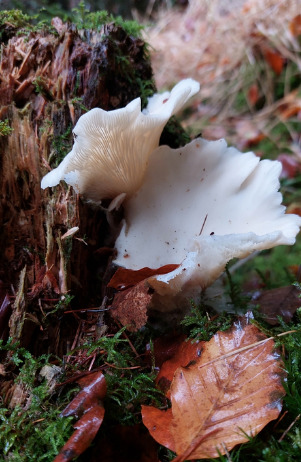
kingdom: Fungi
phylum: Basidiomycota
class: Agaricomycetes
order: Agaricales
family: Marasmiaceae
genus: Pleurocybella
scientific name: Pleurocybella porrigens
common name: Kridthat
